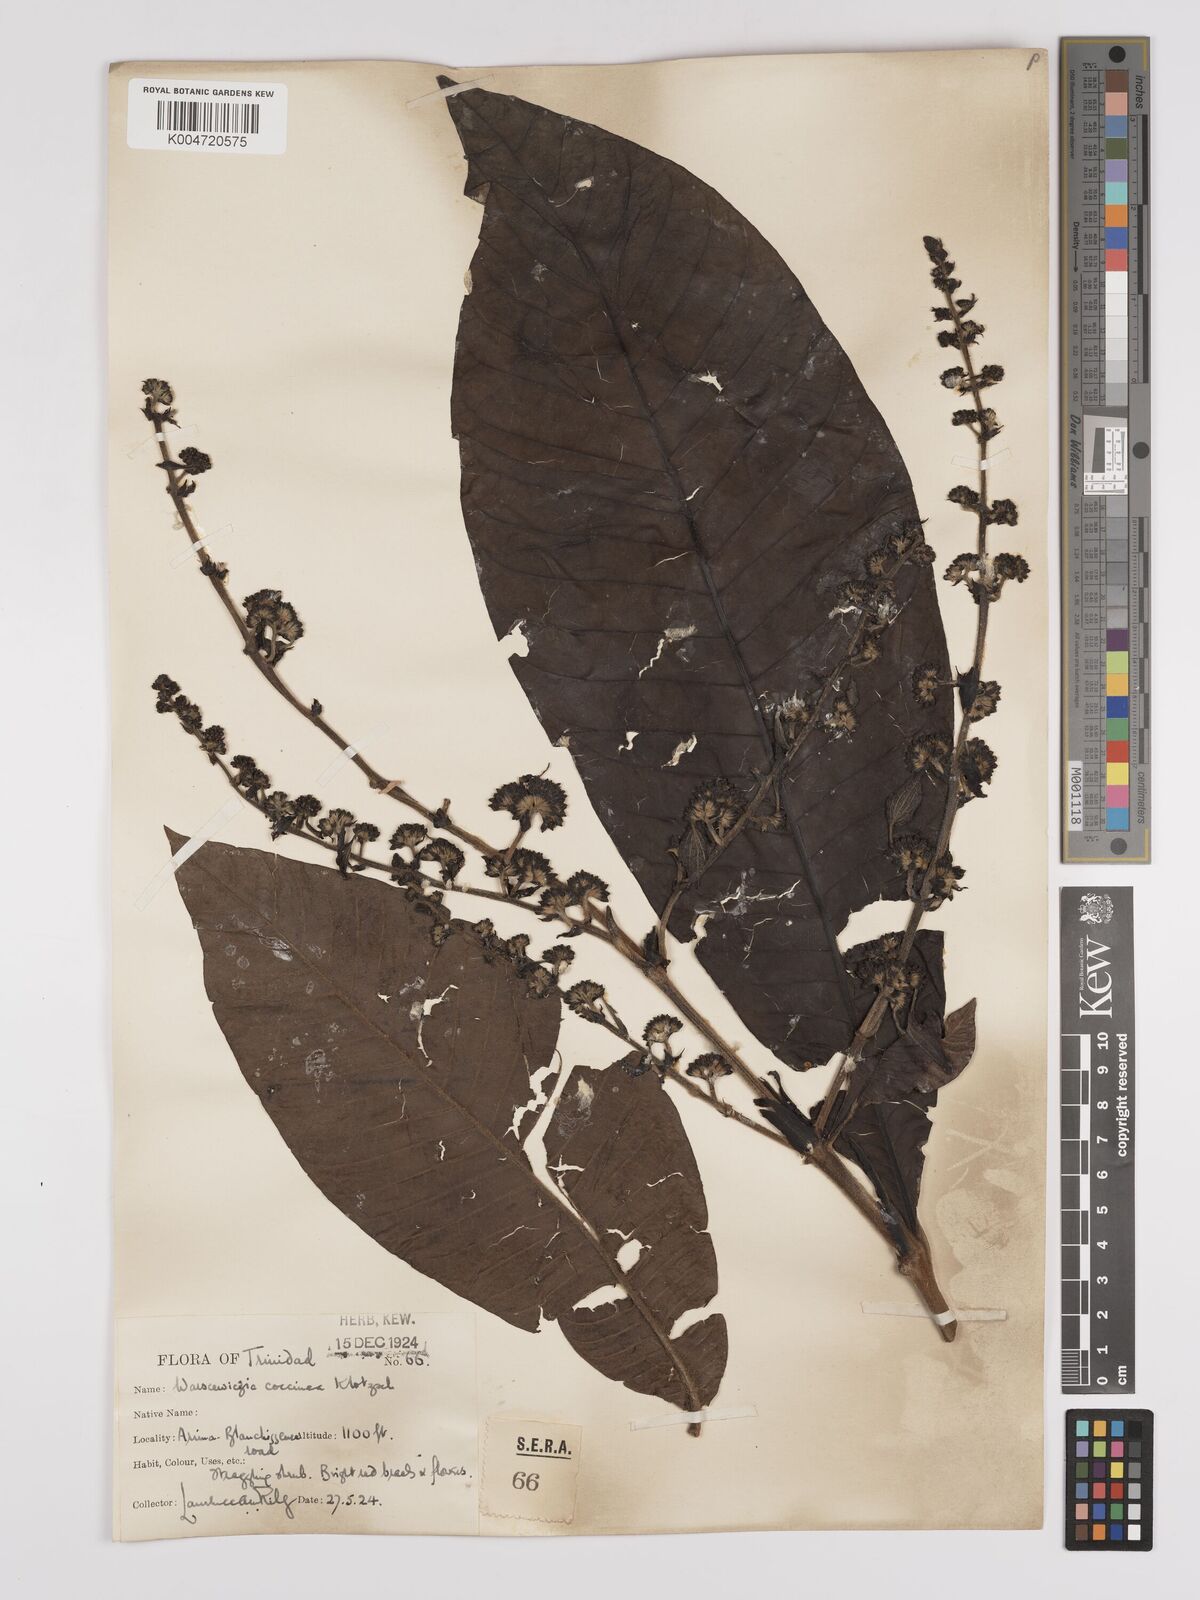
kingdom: Plantae
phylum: Tracheophyta
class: Magnoliopsida
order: Gentianales
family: Rubiaceae
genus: Warszewiczia
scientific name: Warszewiczia coccinea
